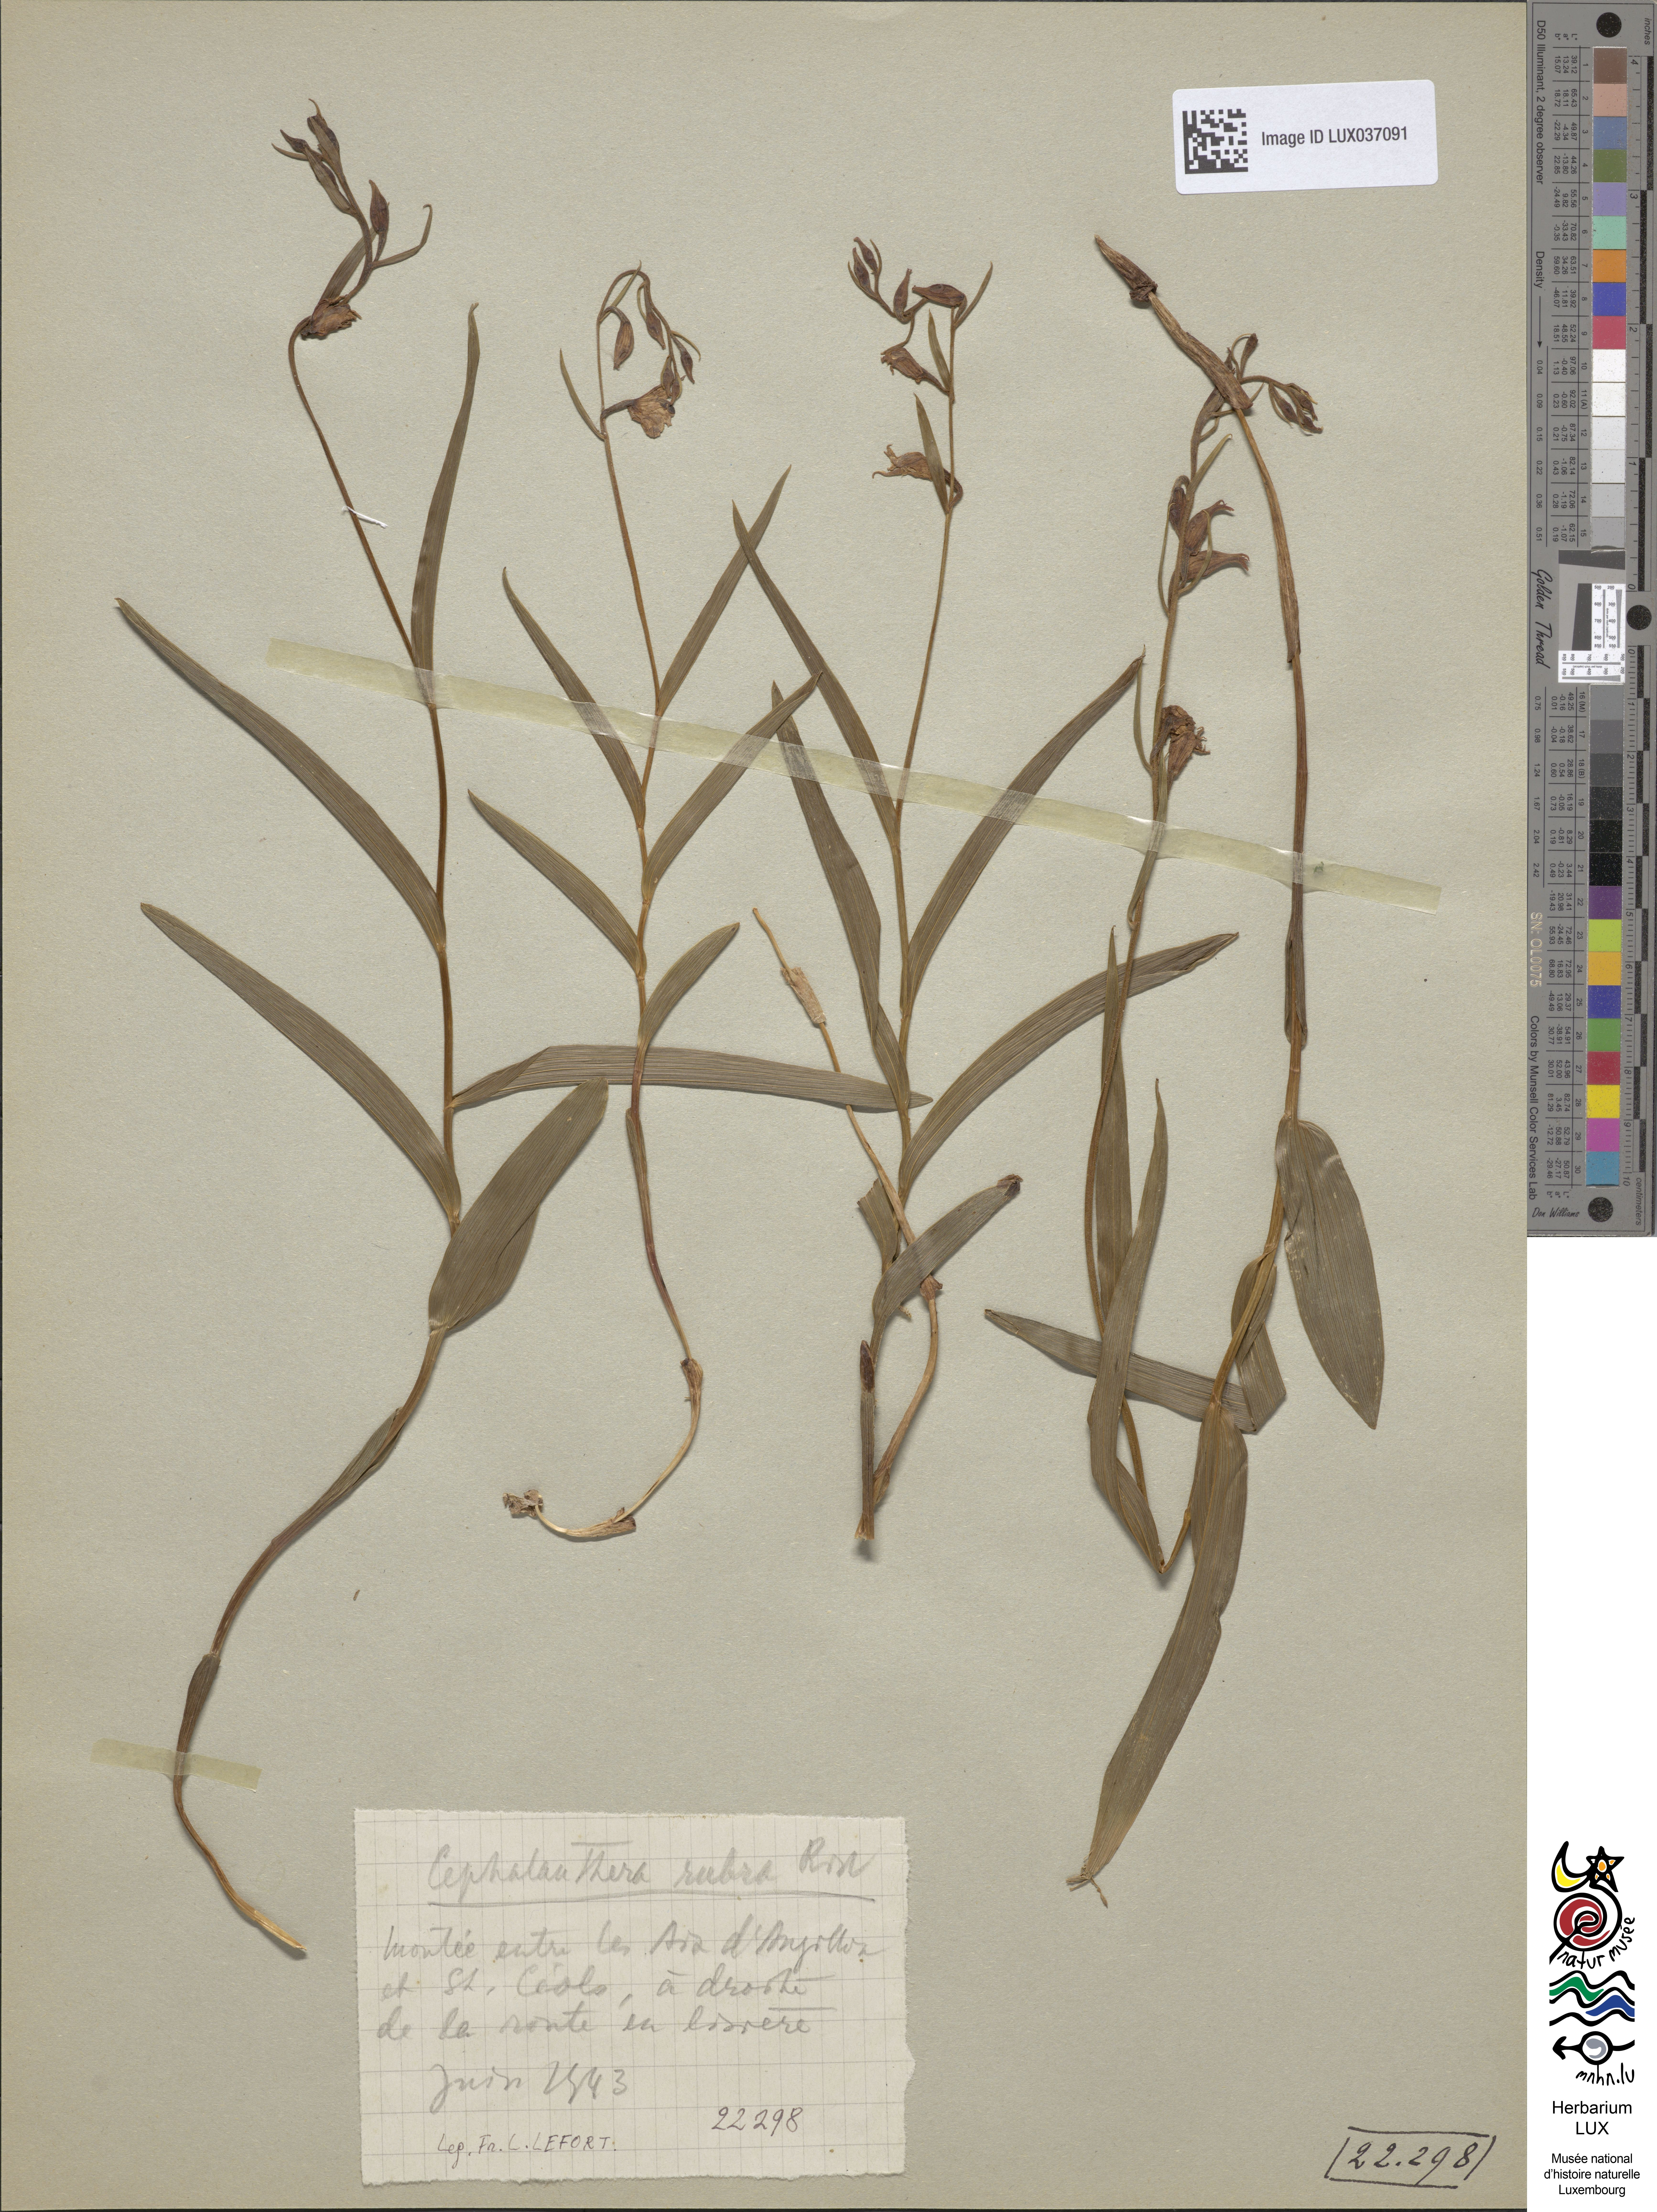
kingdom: Plantae
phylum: Tracheophyta
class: Liliopsida
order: Asparagales
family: Orchidaceae
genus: Cephalanthera
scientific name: Cephalanthera rubra
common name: Red helleborine
